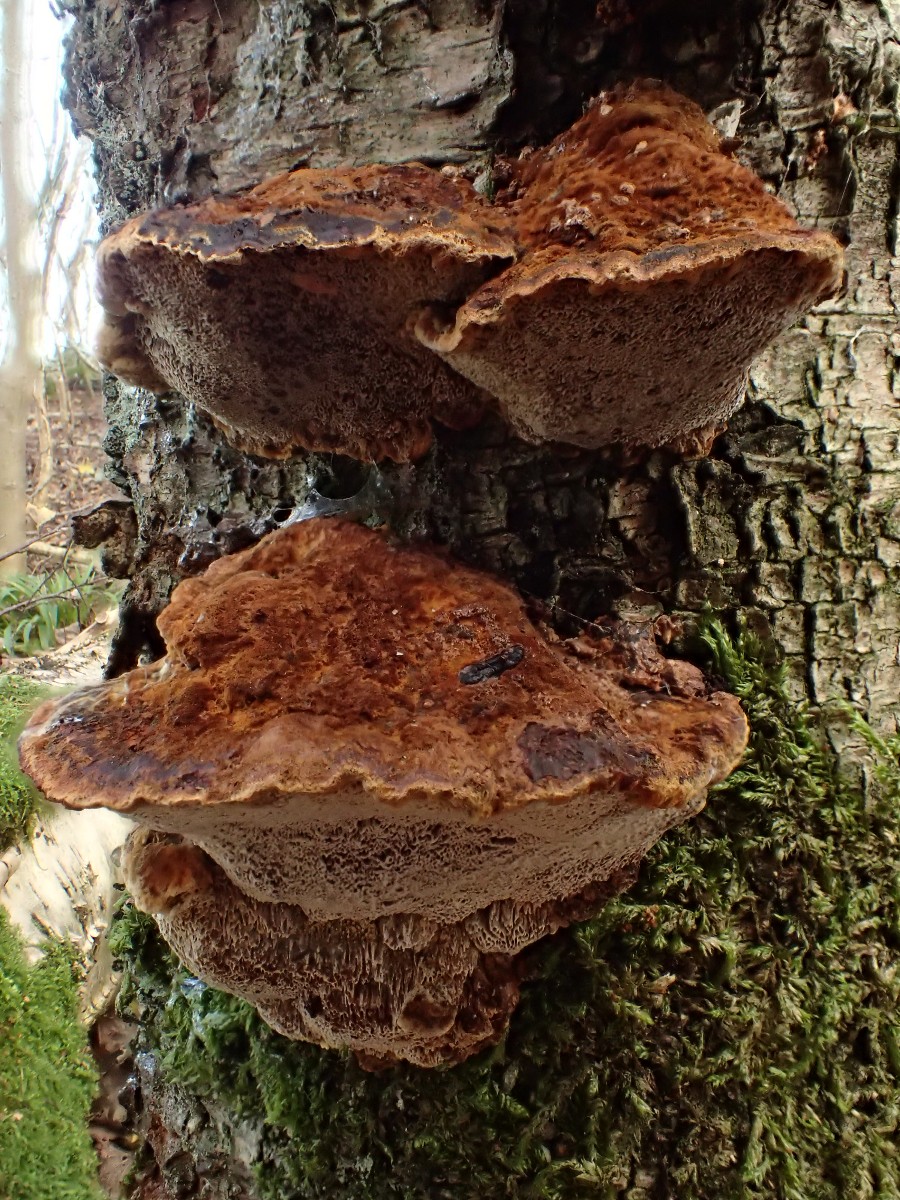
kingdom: Fungi
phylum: Basidiomycota
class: Agaricomycetes
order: Hymenochaetales
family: Hymenochaetaceae
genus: Xanthoporia
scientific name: Xanthoporia radiata
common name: elle-spejlporesvamp
